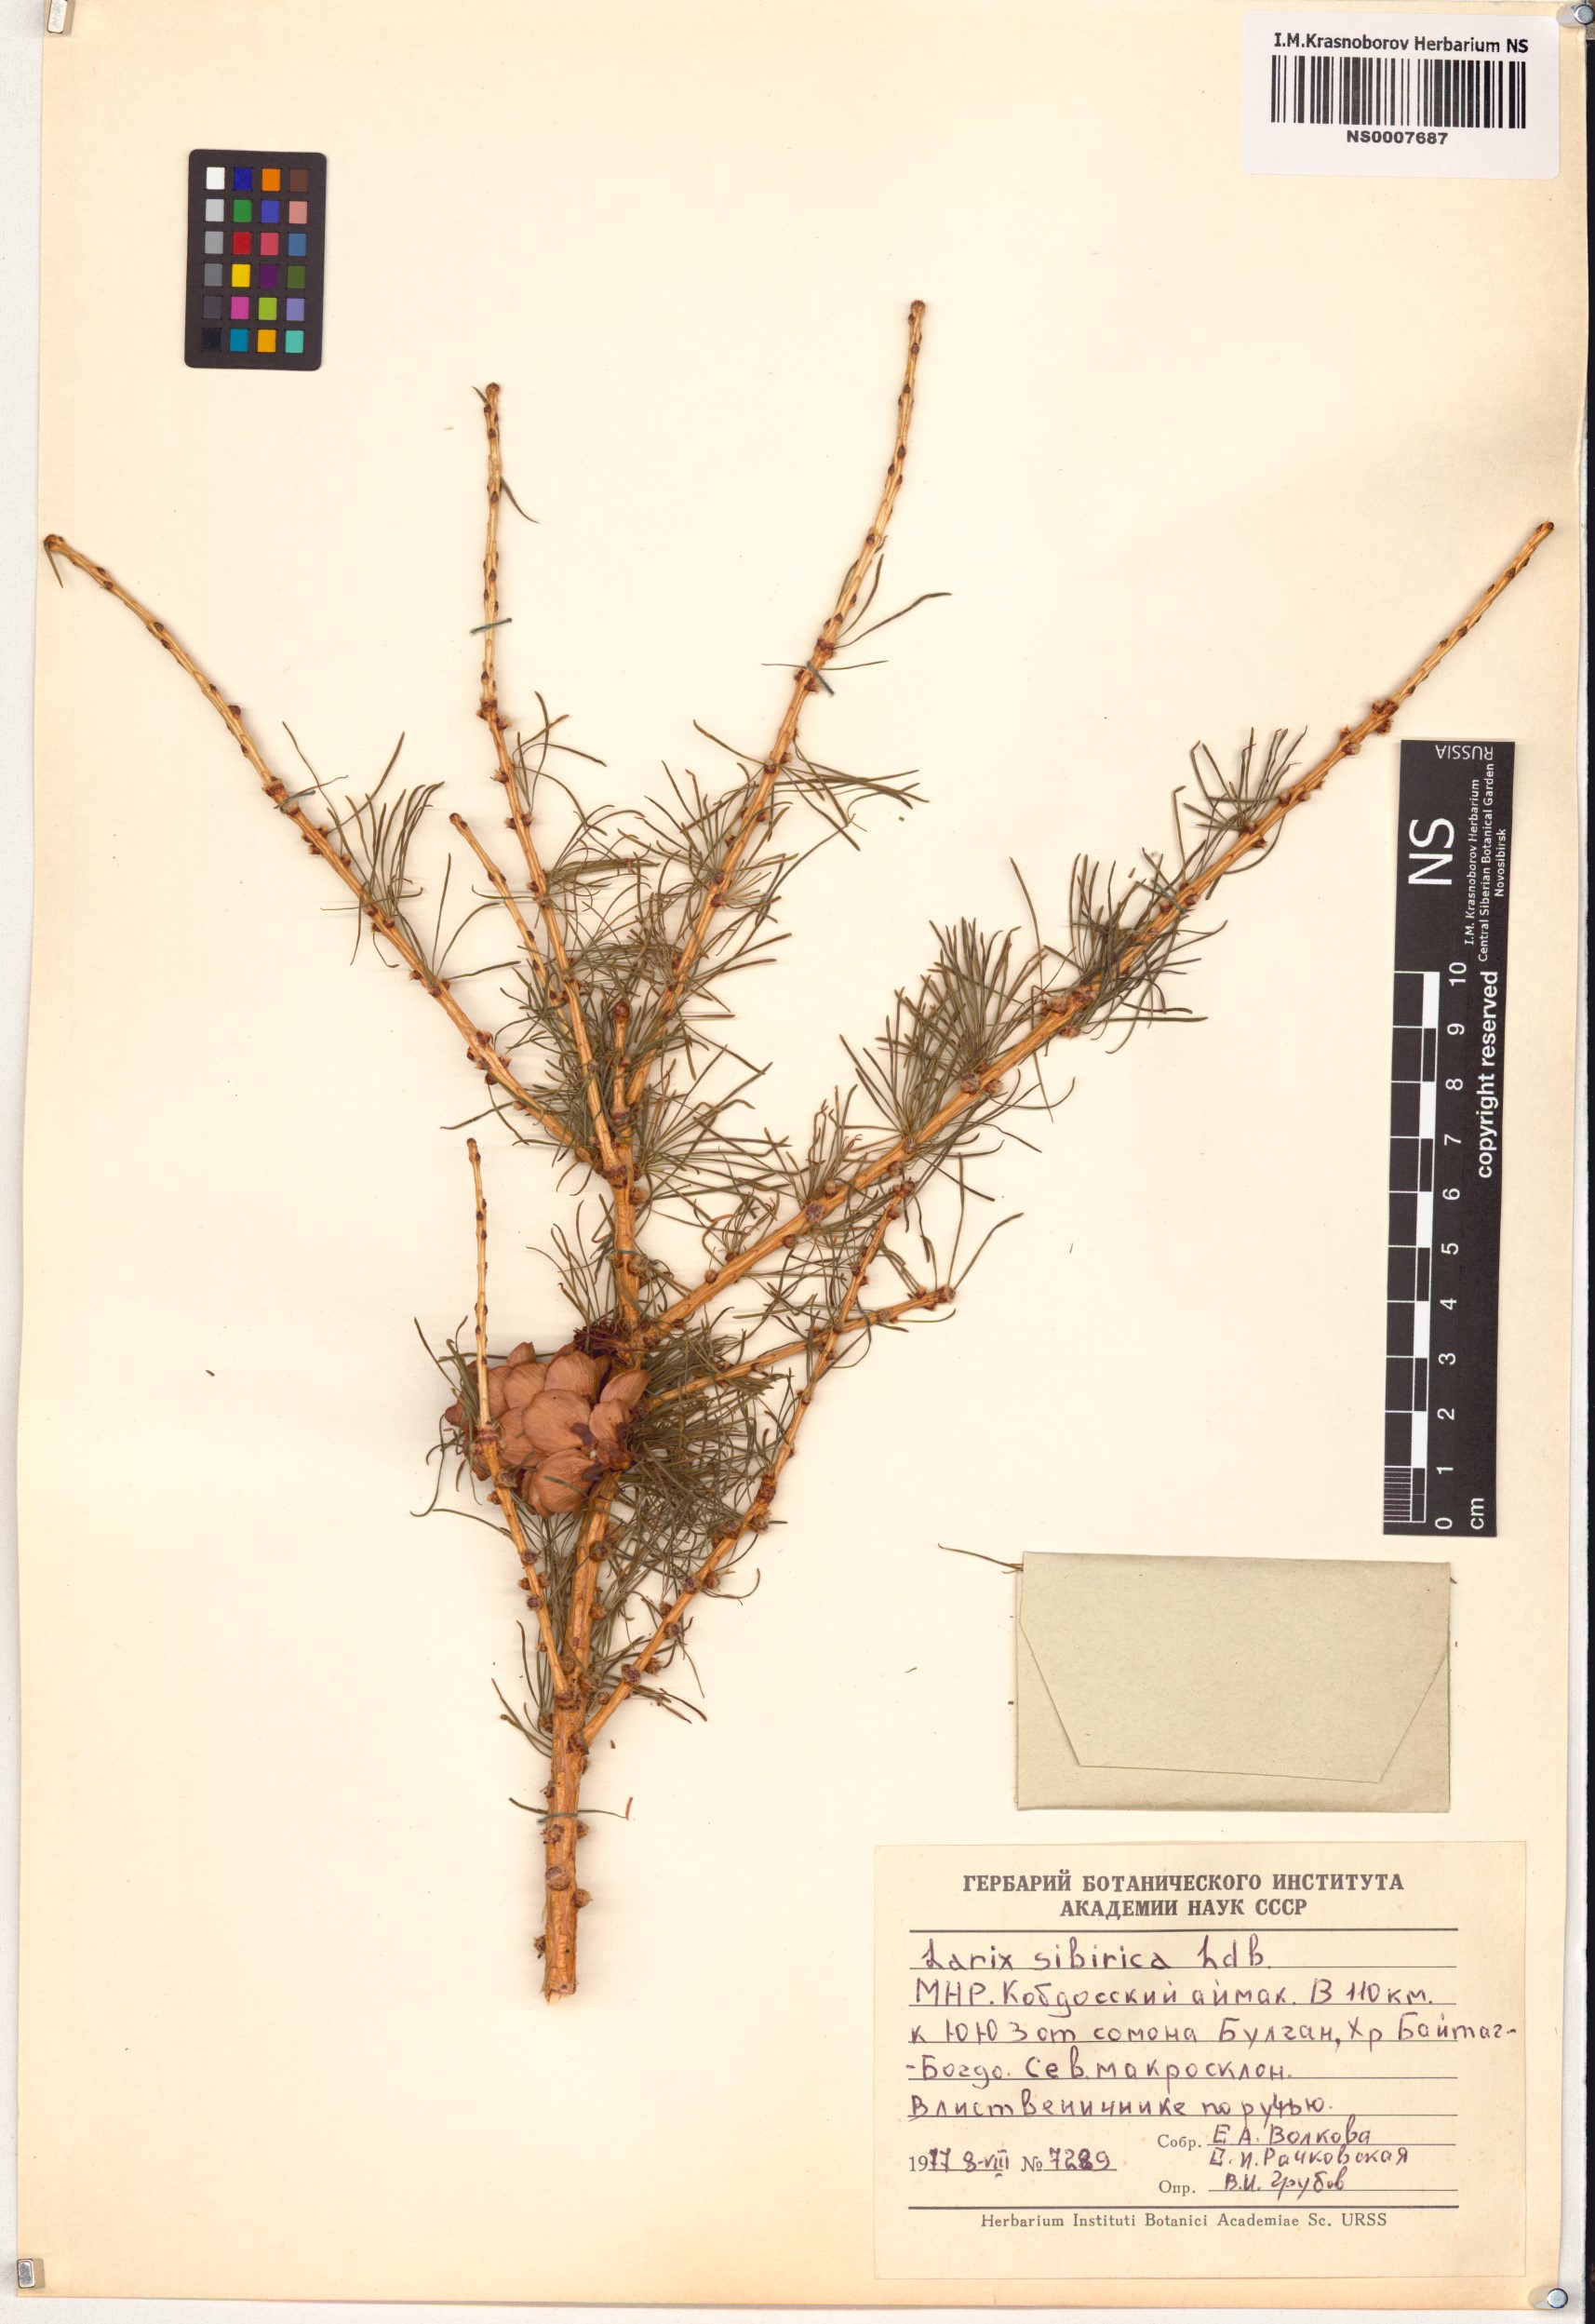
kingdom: Plantae
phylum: Tracheophyta
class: Pinopsida
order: Pinales
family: Pinaceae
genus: Larix
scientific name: Larix sibirica
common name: Siberian larch
